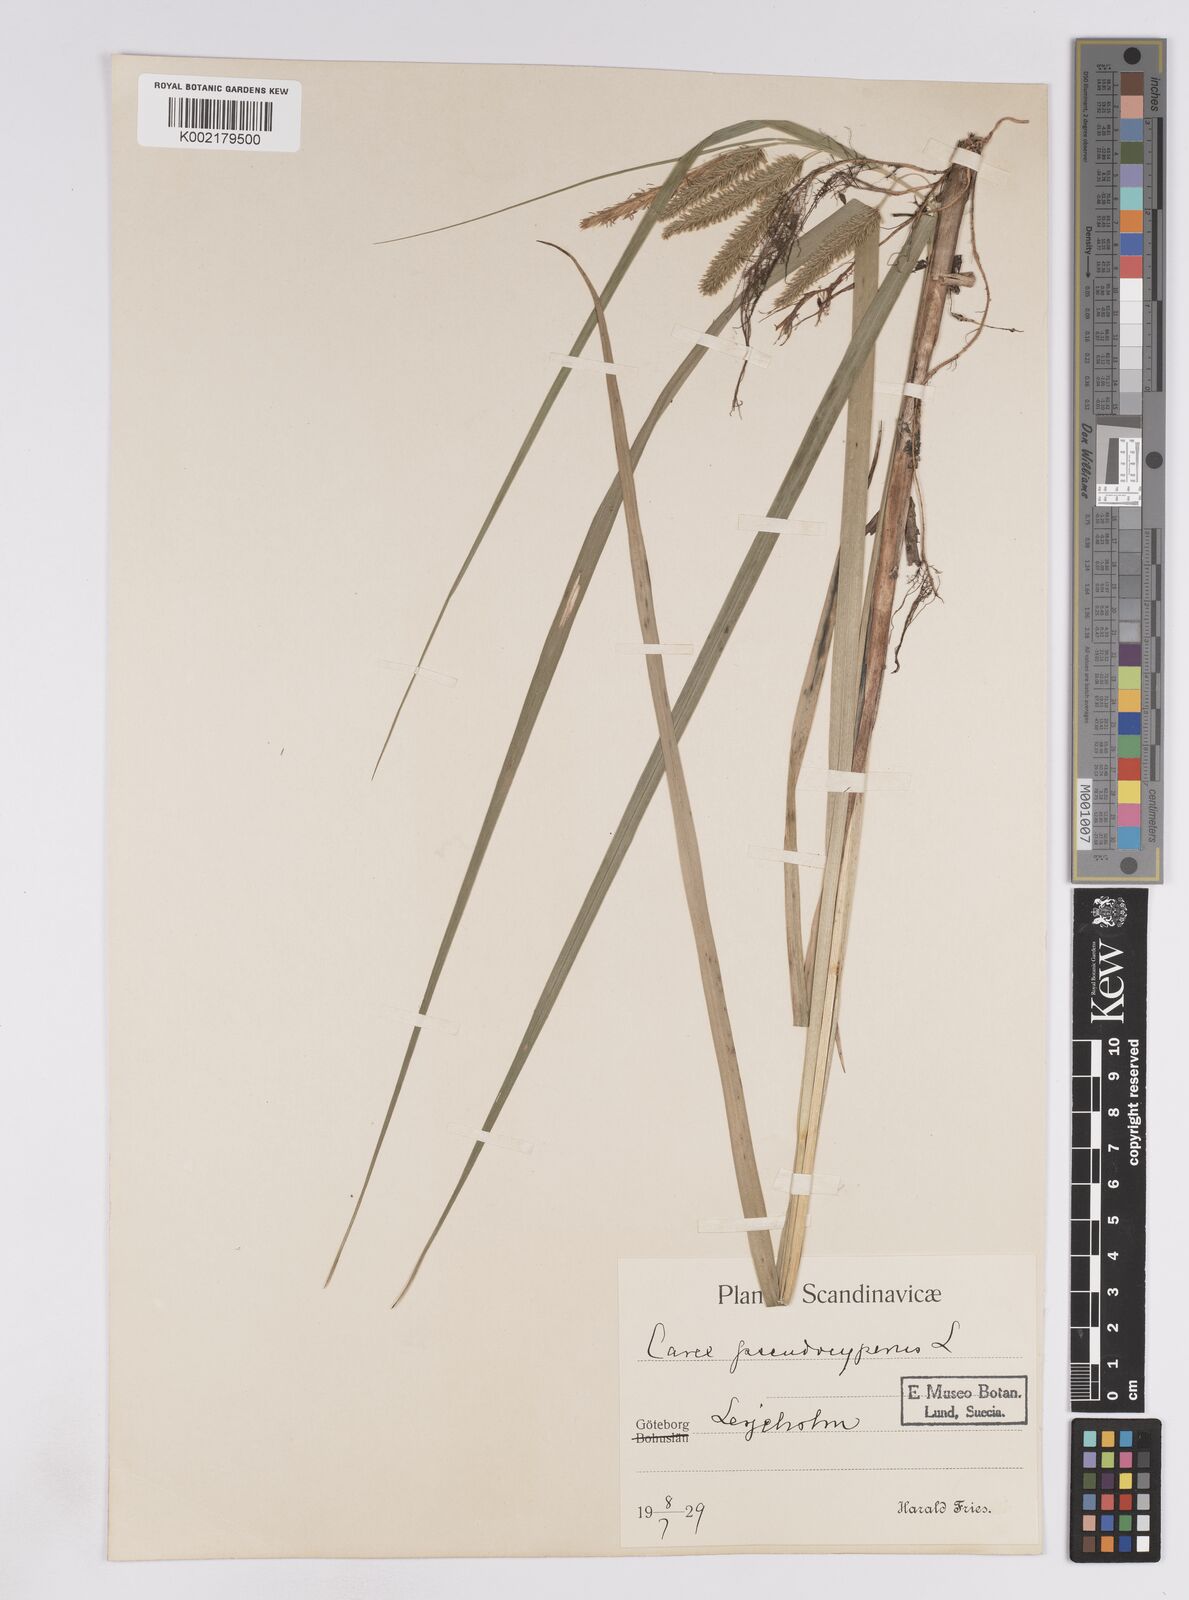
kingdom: Plantae
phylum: Tracheophyta
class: Liliopsida
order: Poales
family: Cyperaceae
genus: Carex
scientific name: Carex pseudocyperus
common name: Cyperus sedge
